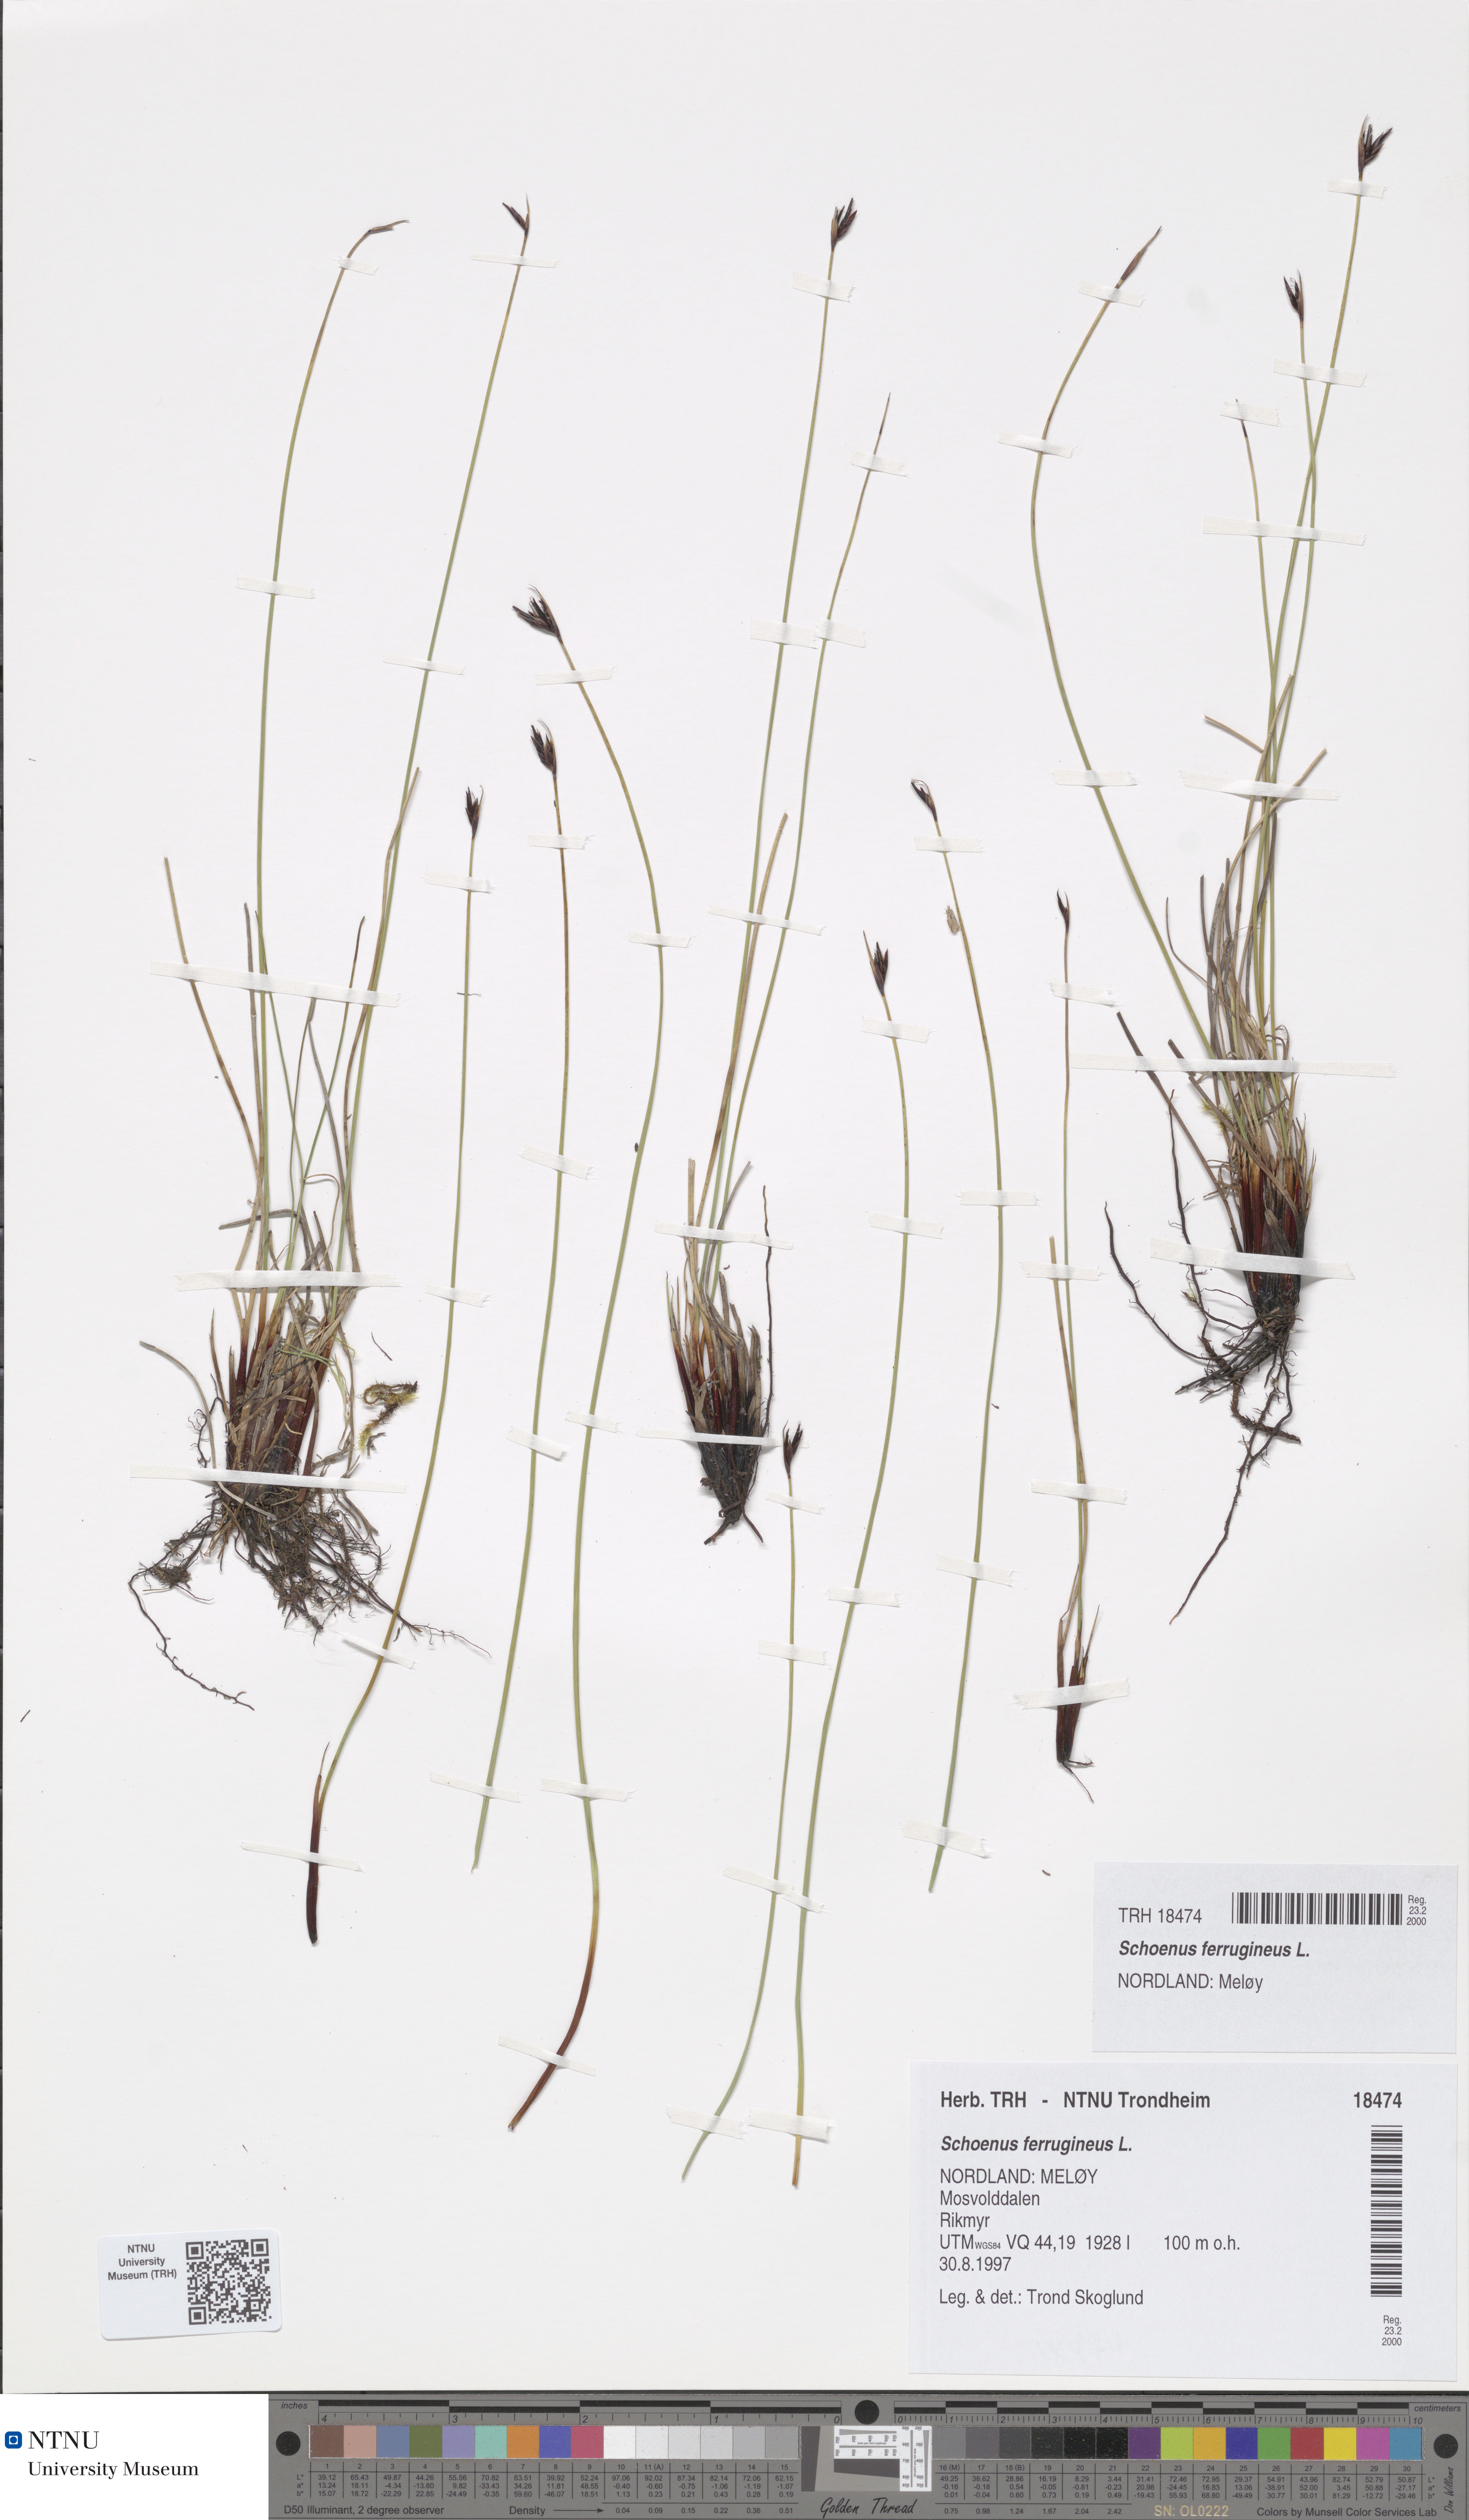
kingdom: Plantae
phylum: Tracheophyta
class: Liliopsida
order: Poales
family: Cyperaceae
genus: Schoenus
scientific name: Schoenus ferrugineus
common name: Brown bog-rush
